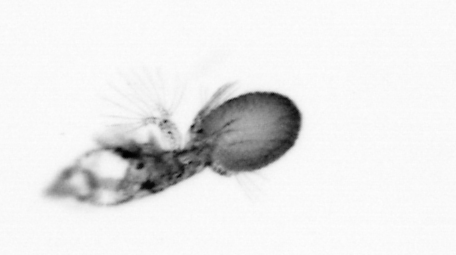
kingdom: Animalia
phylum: Arthropoda
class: Copepoda
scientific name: Copepoda
